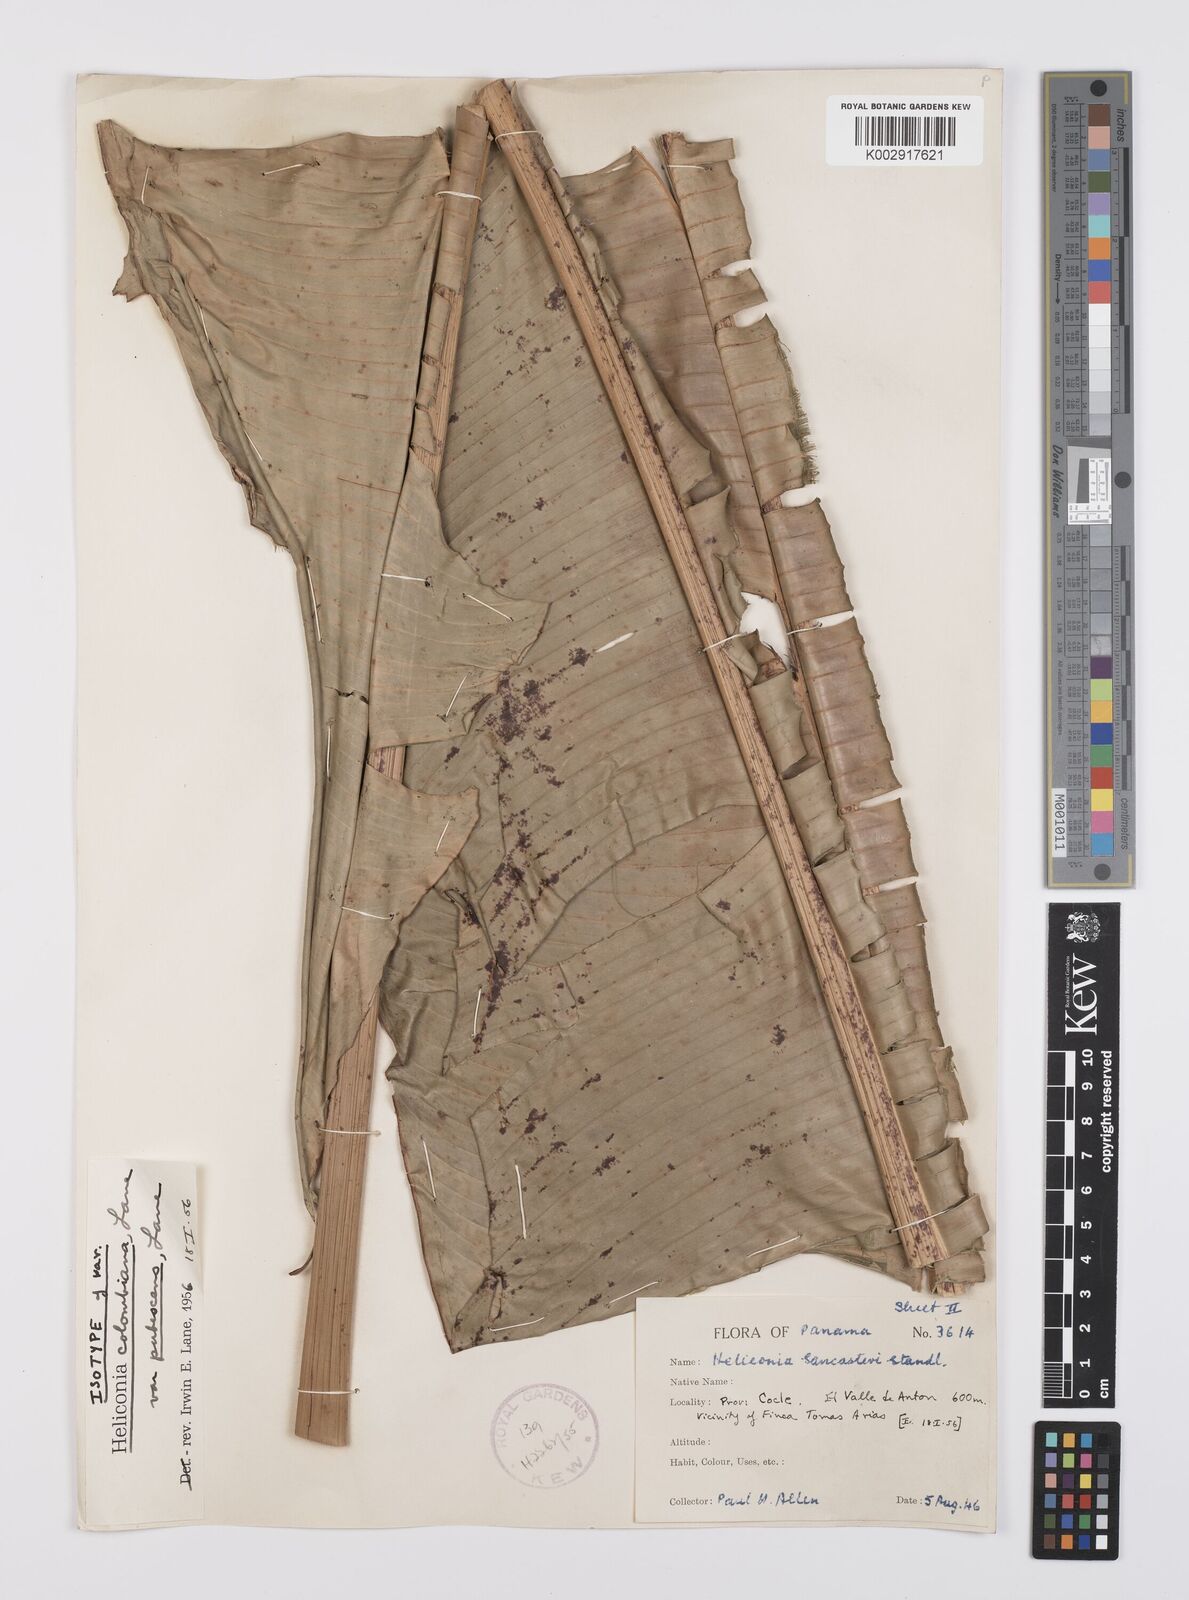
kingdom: Plantae
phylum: Tracheophyta
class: Liliopsida
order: Zingiberales
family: Heliconiaceae
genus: Heliconia
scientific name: Heliconia necrobracteata
